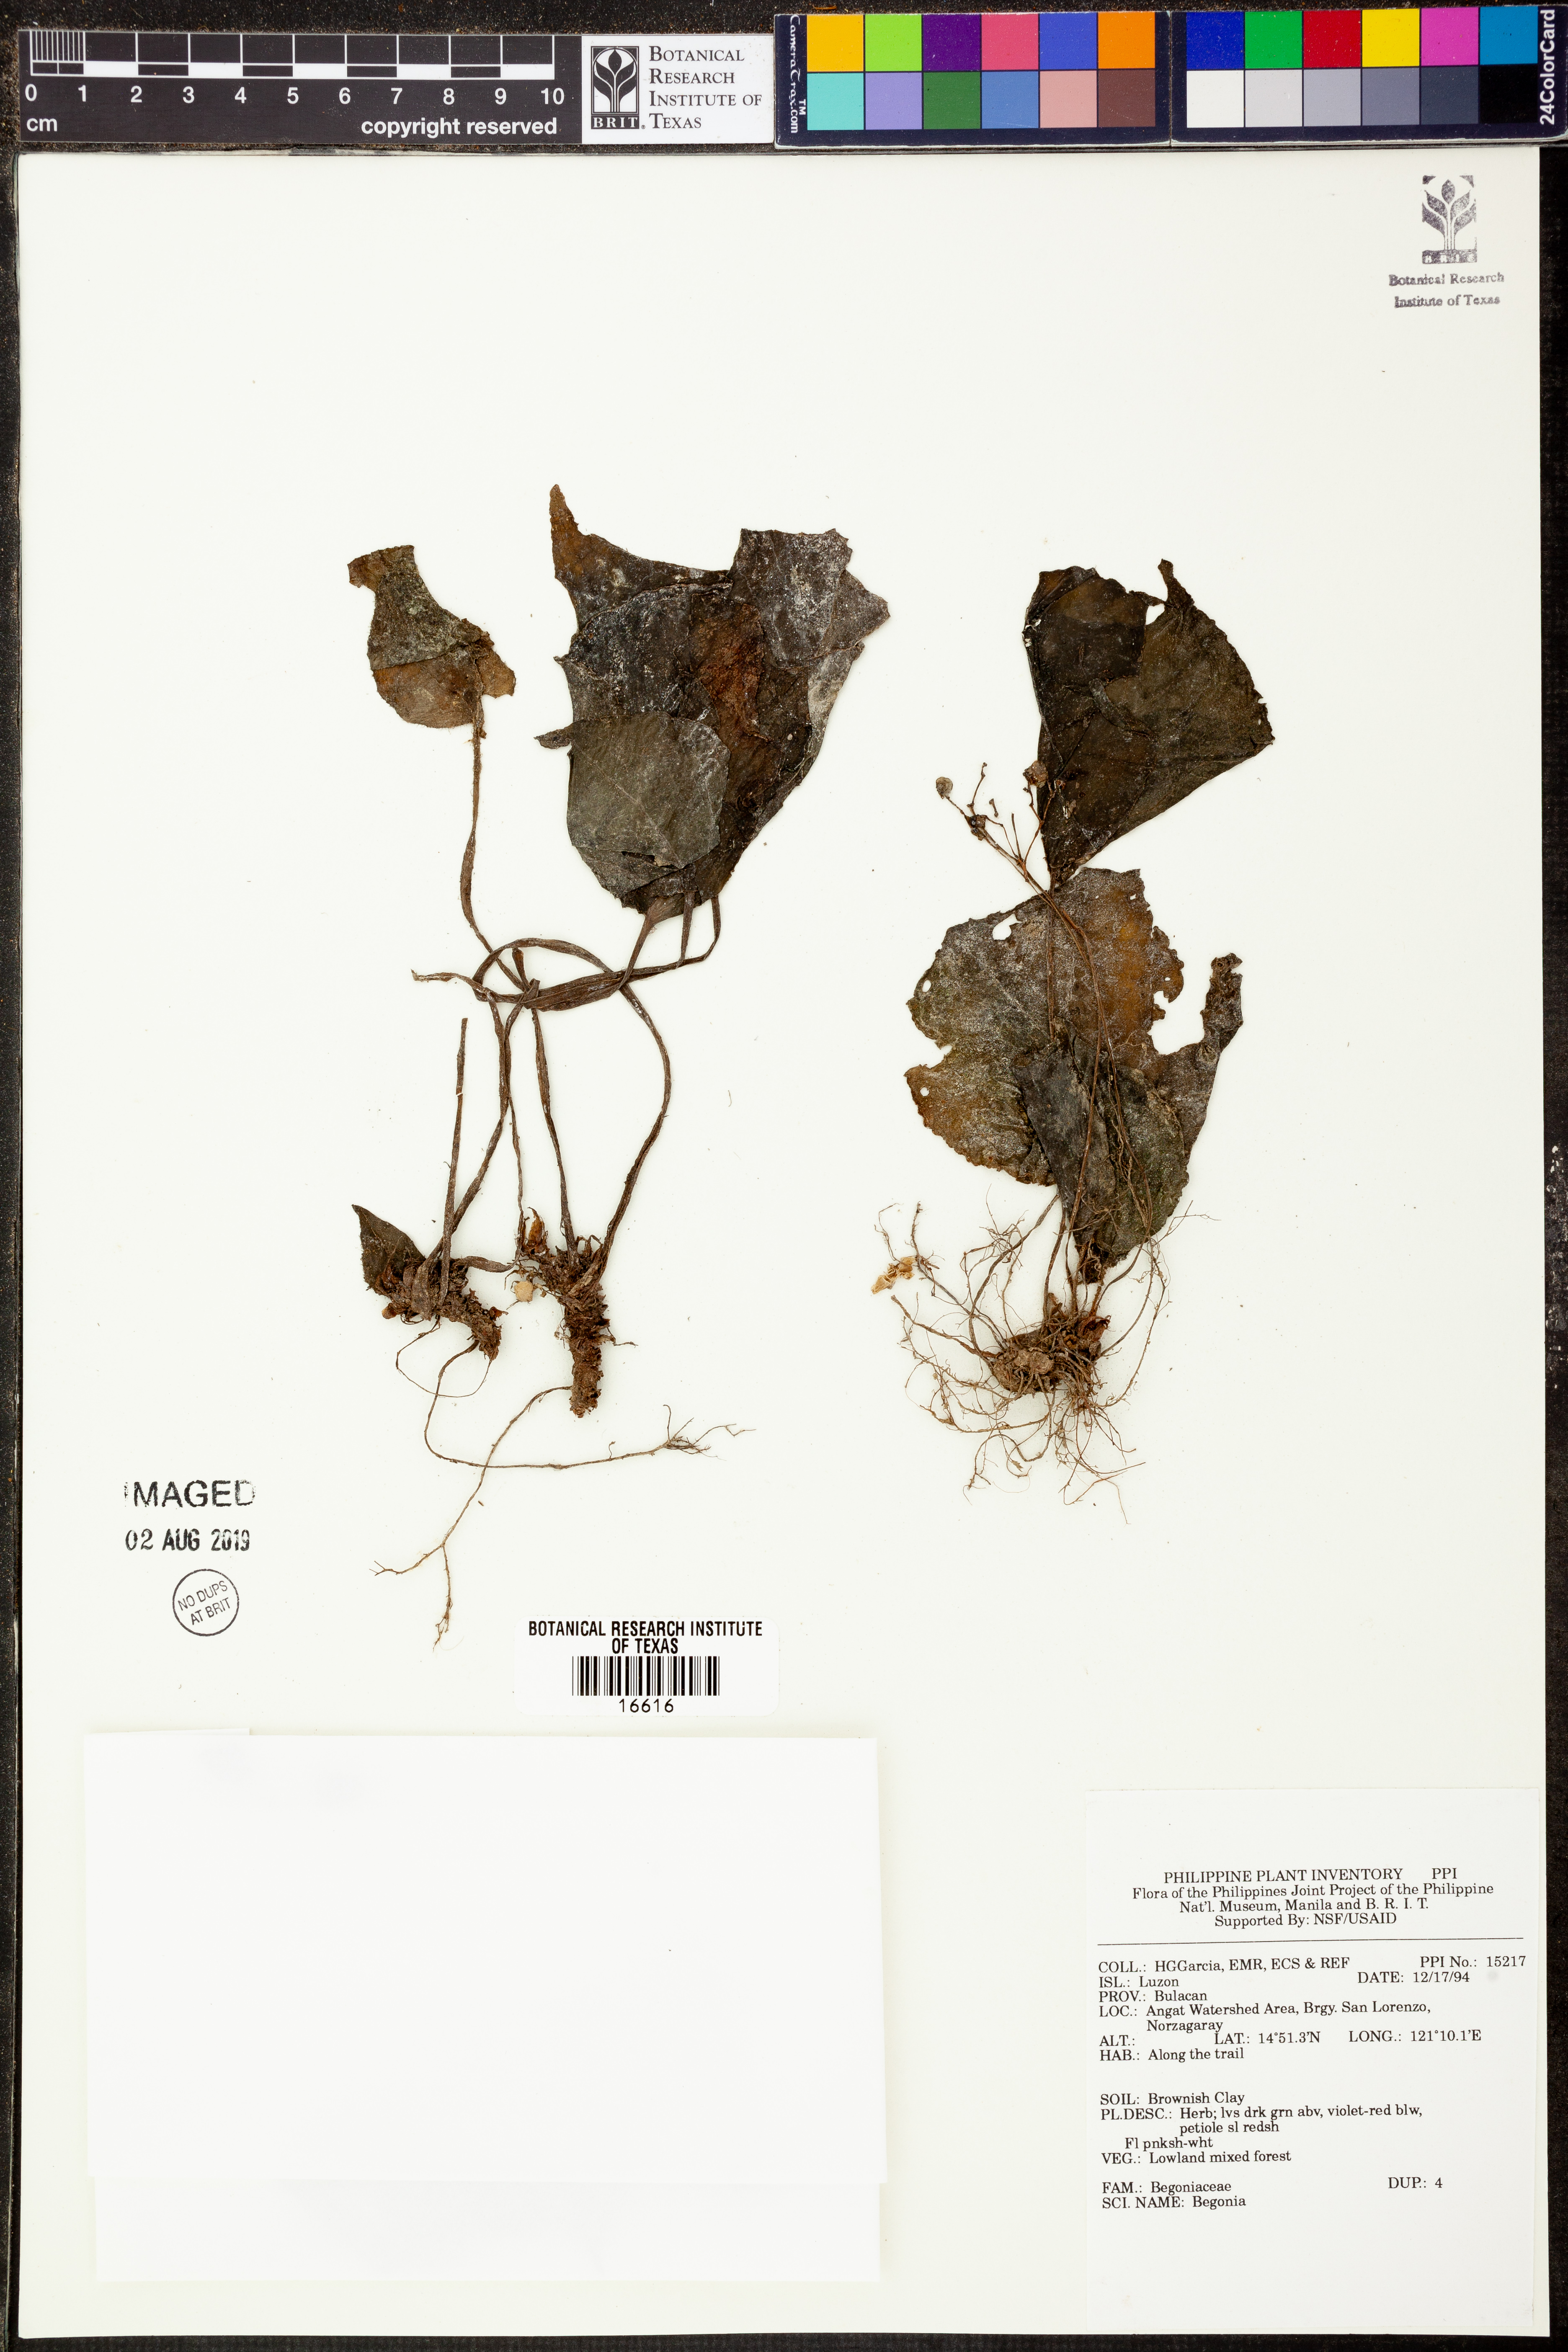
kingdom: Plantae
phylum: Tracheophyta
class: Magnoliopsida
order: Cucurbitales
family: Begoniaceae
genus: Begonia
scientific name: Begonia
